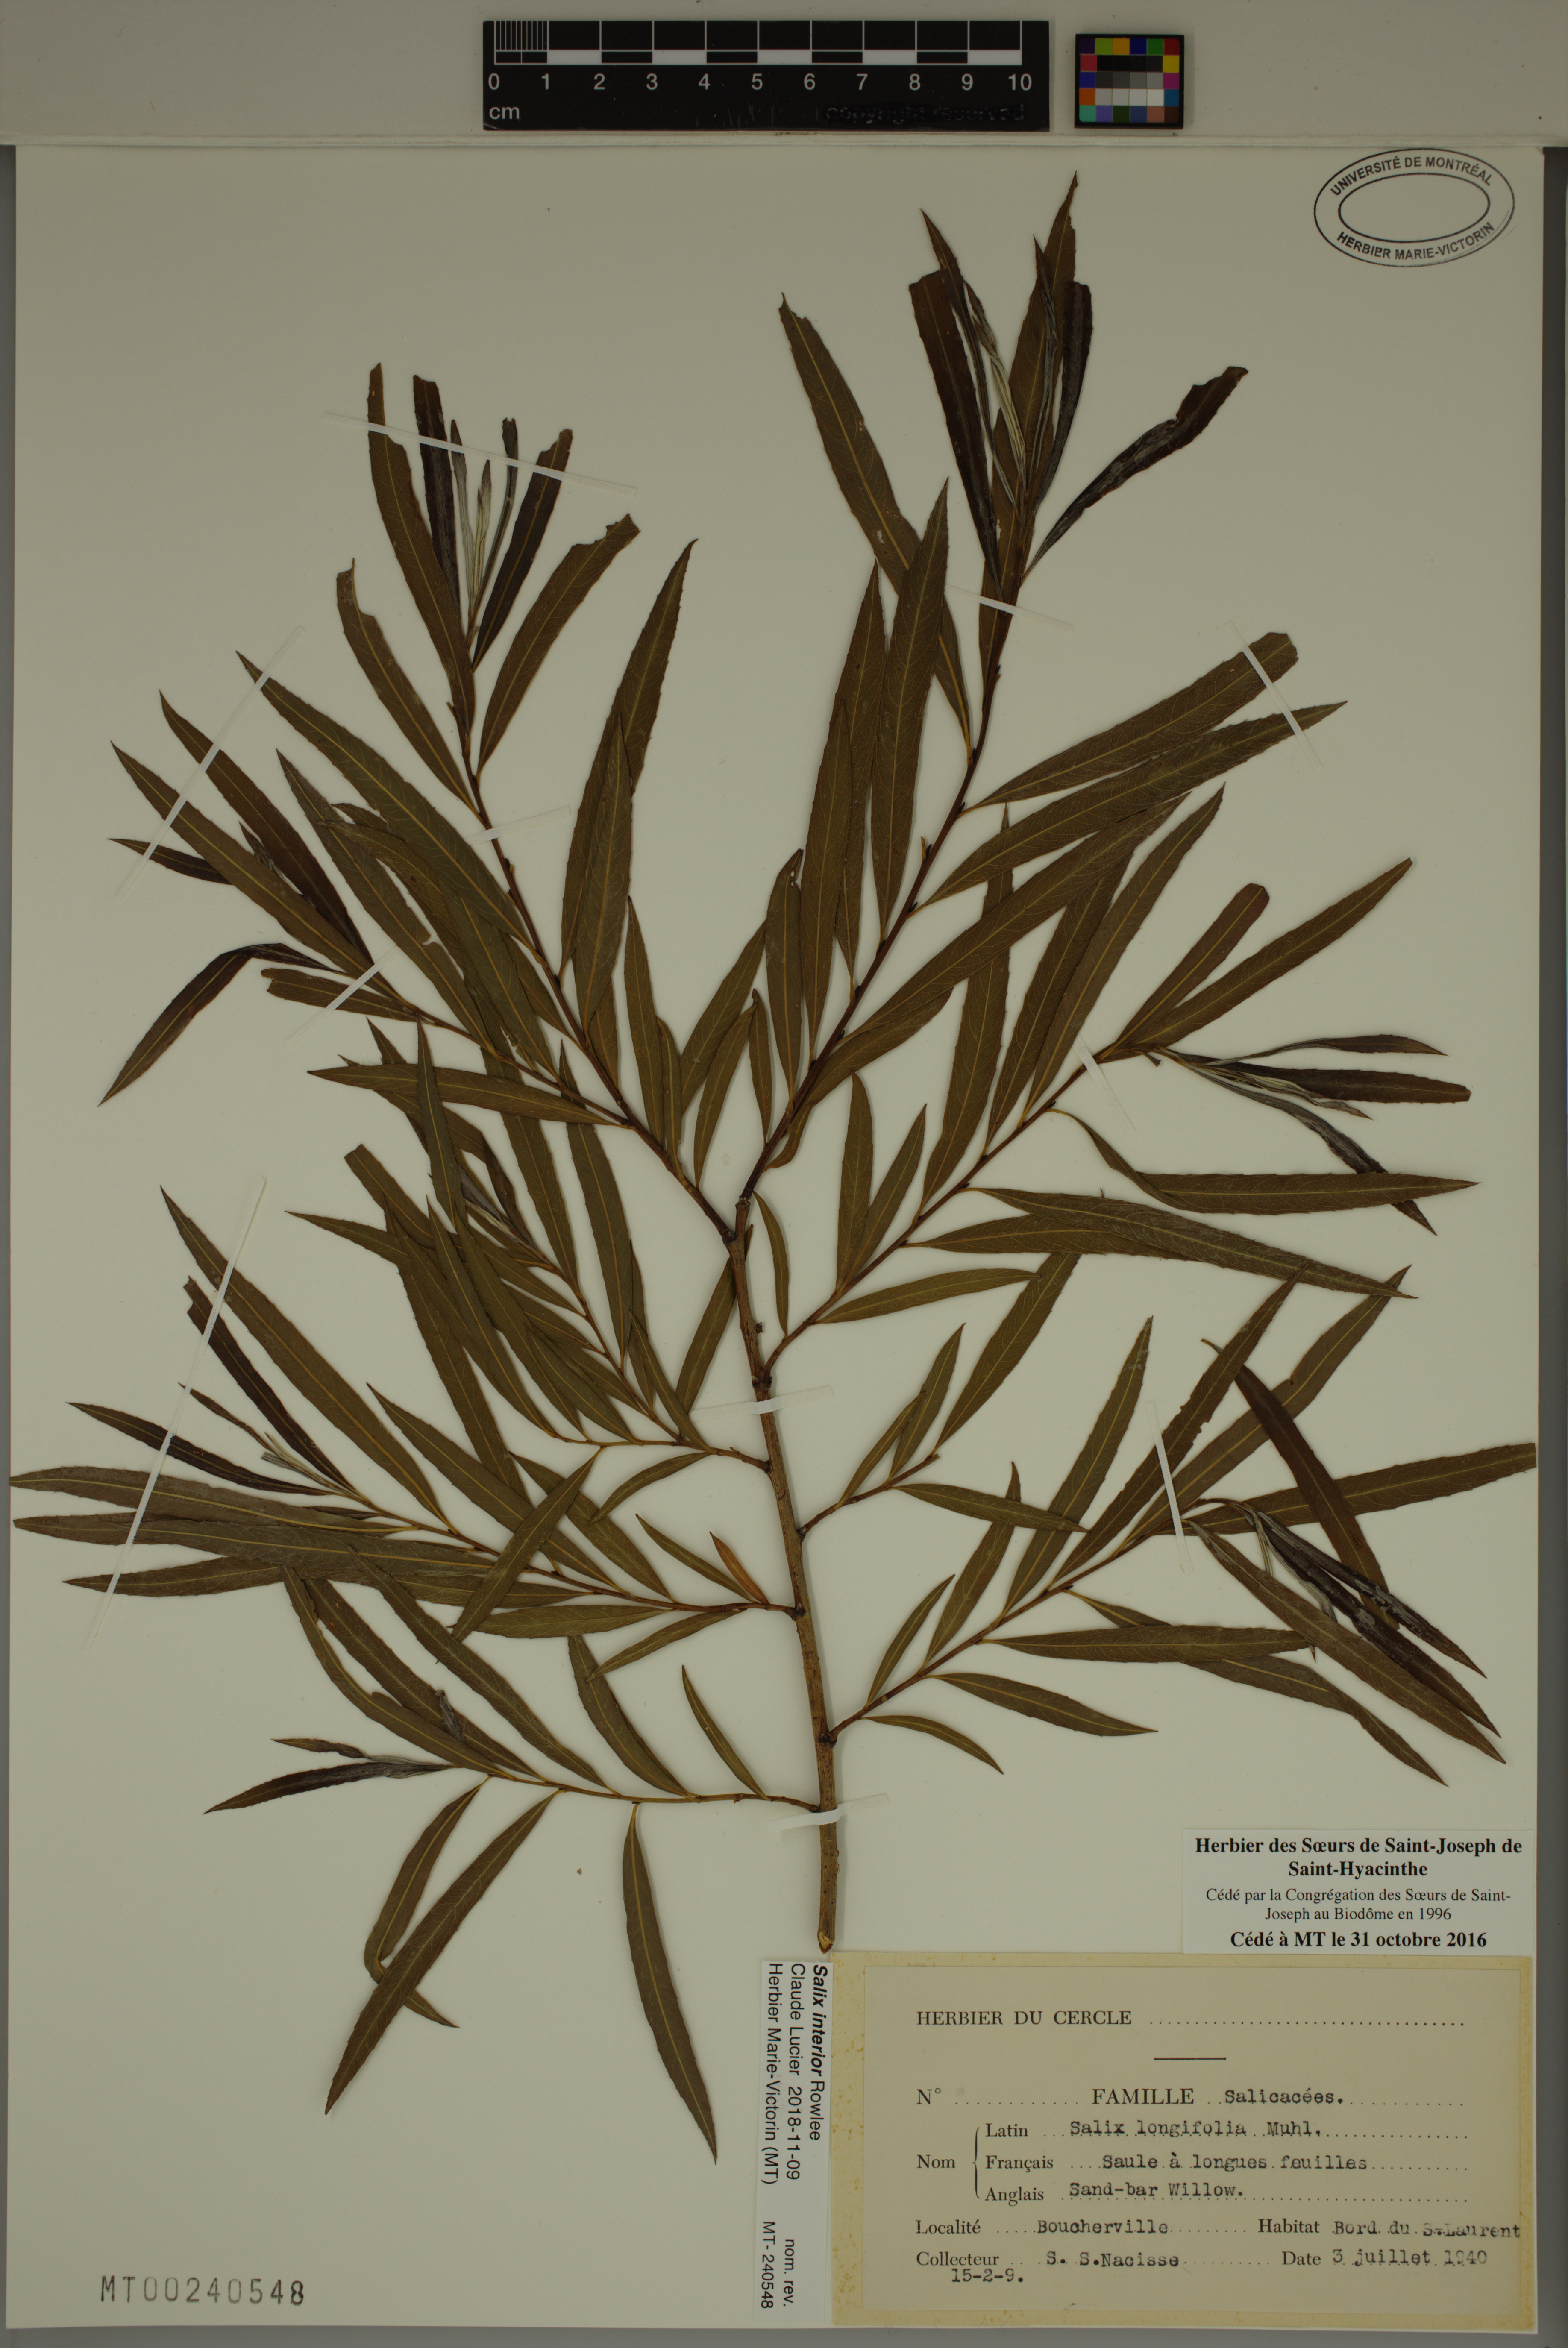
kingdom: Plantae
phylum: Tracheophyta
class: Magnoliopsida
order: Malpighiales
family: Salicaceae
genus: Salix
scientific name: Salix interior
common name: Sandbar willow
